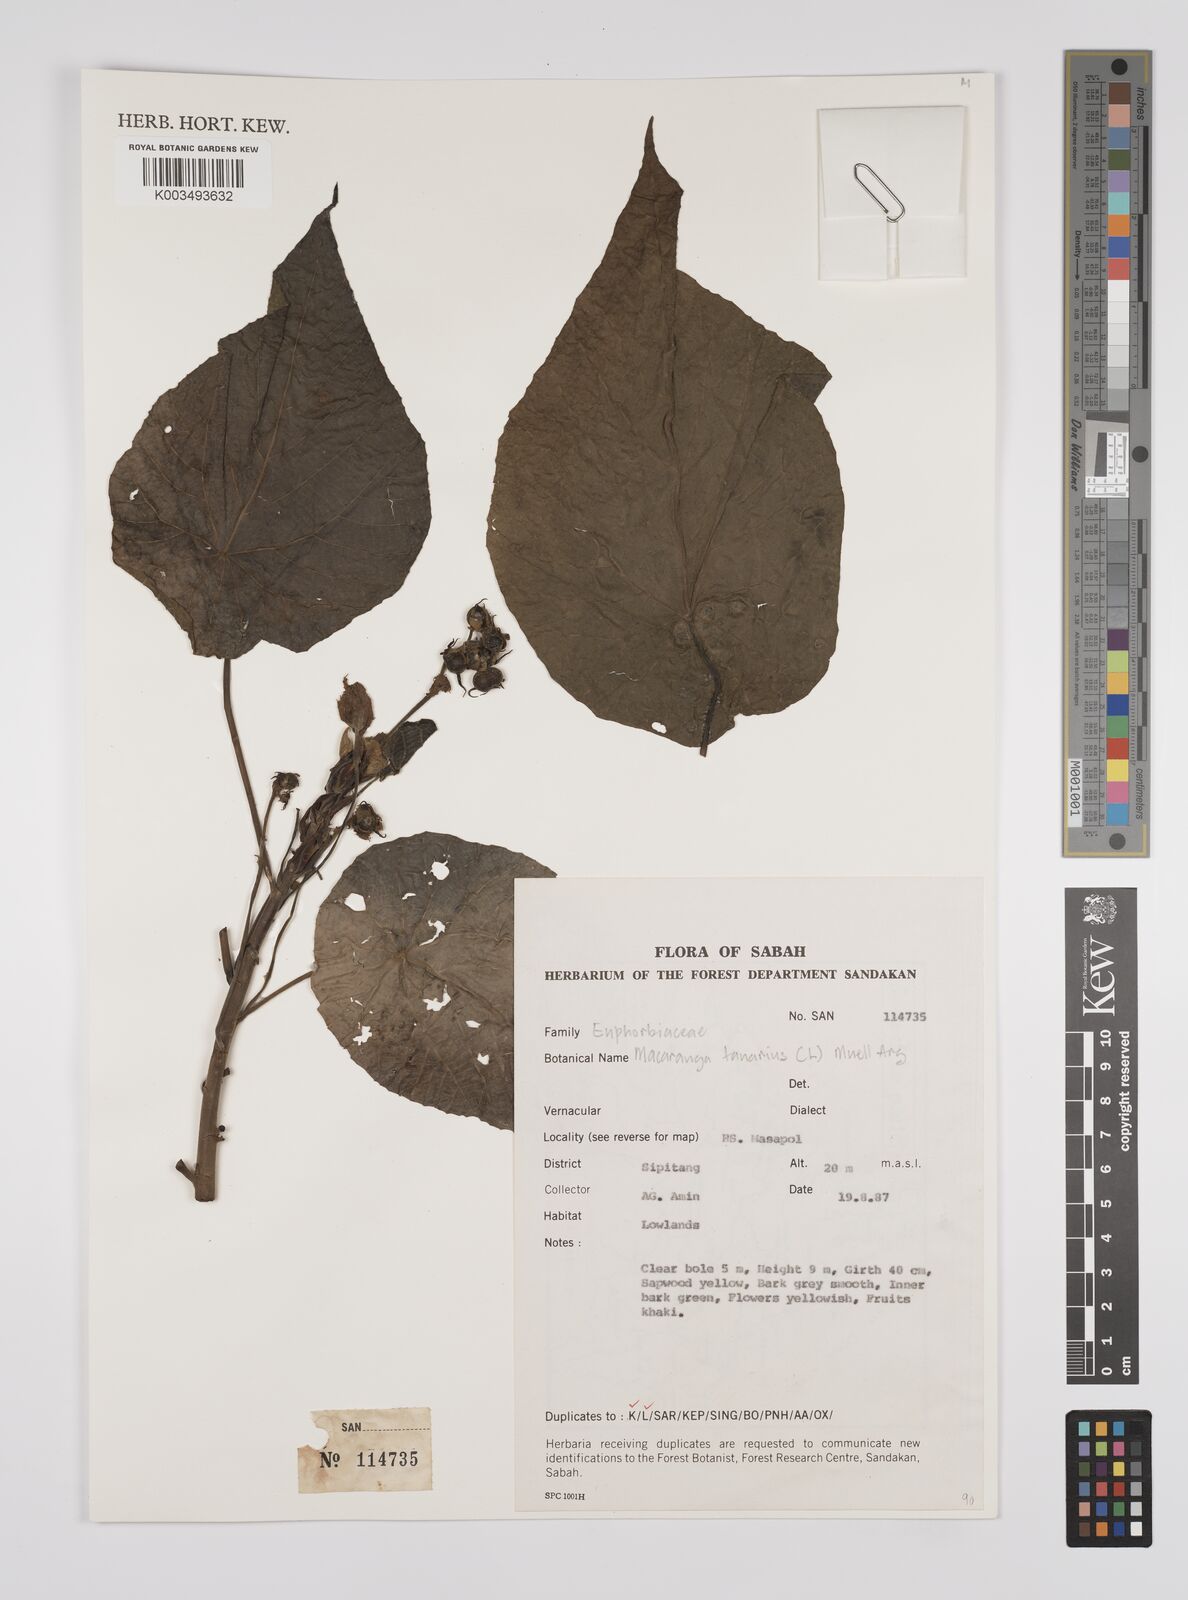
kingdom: Plantae
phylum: Tracheophyta
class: Magnoliopsida
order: Malpighiales
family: Euphorbiaceae
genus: Macaranga
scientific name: Macaranga tanarius
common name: Parasol leaf tree
